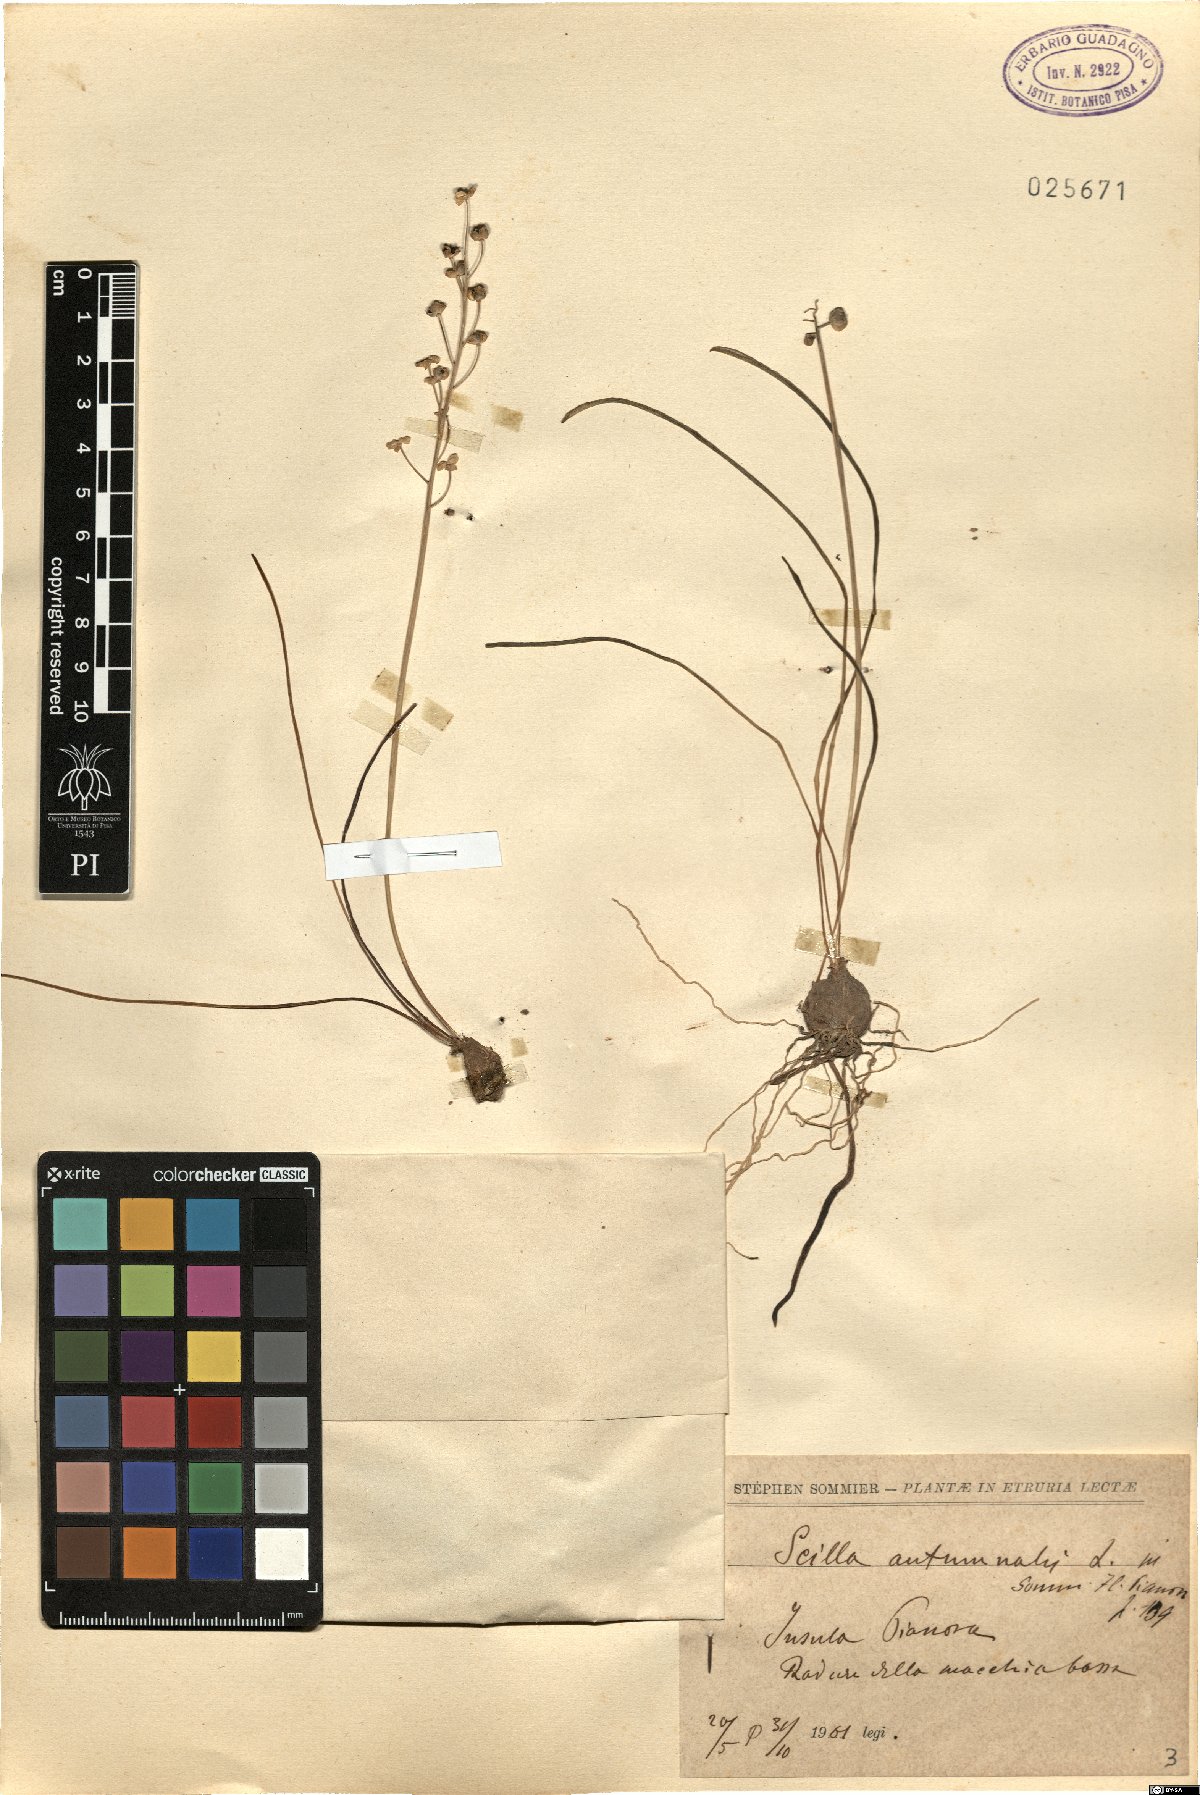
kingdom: Plantae
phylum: Tracheophyta
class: Liliopsida
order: Asparagales
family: Asparagaceae
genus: Prospero
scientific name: Prospero autumnale
